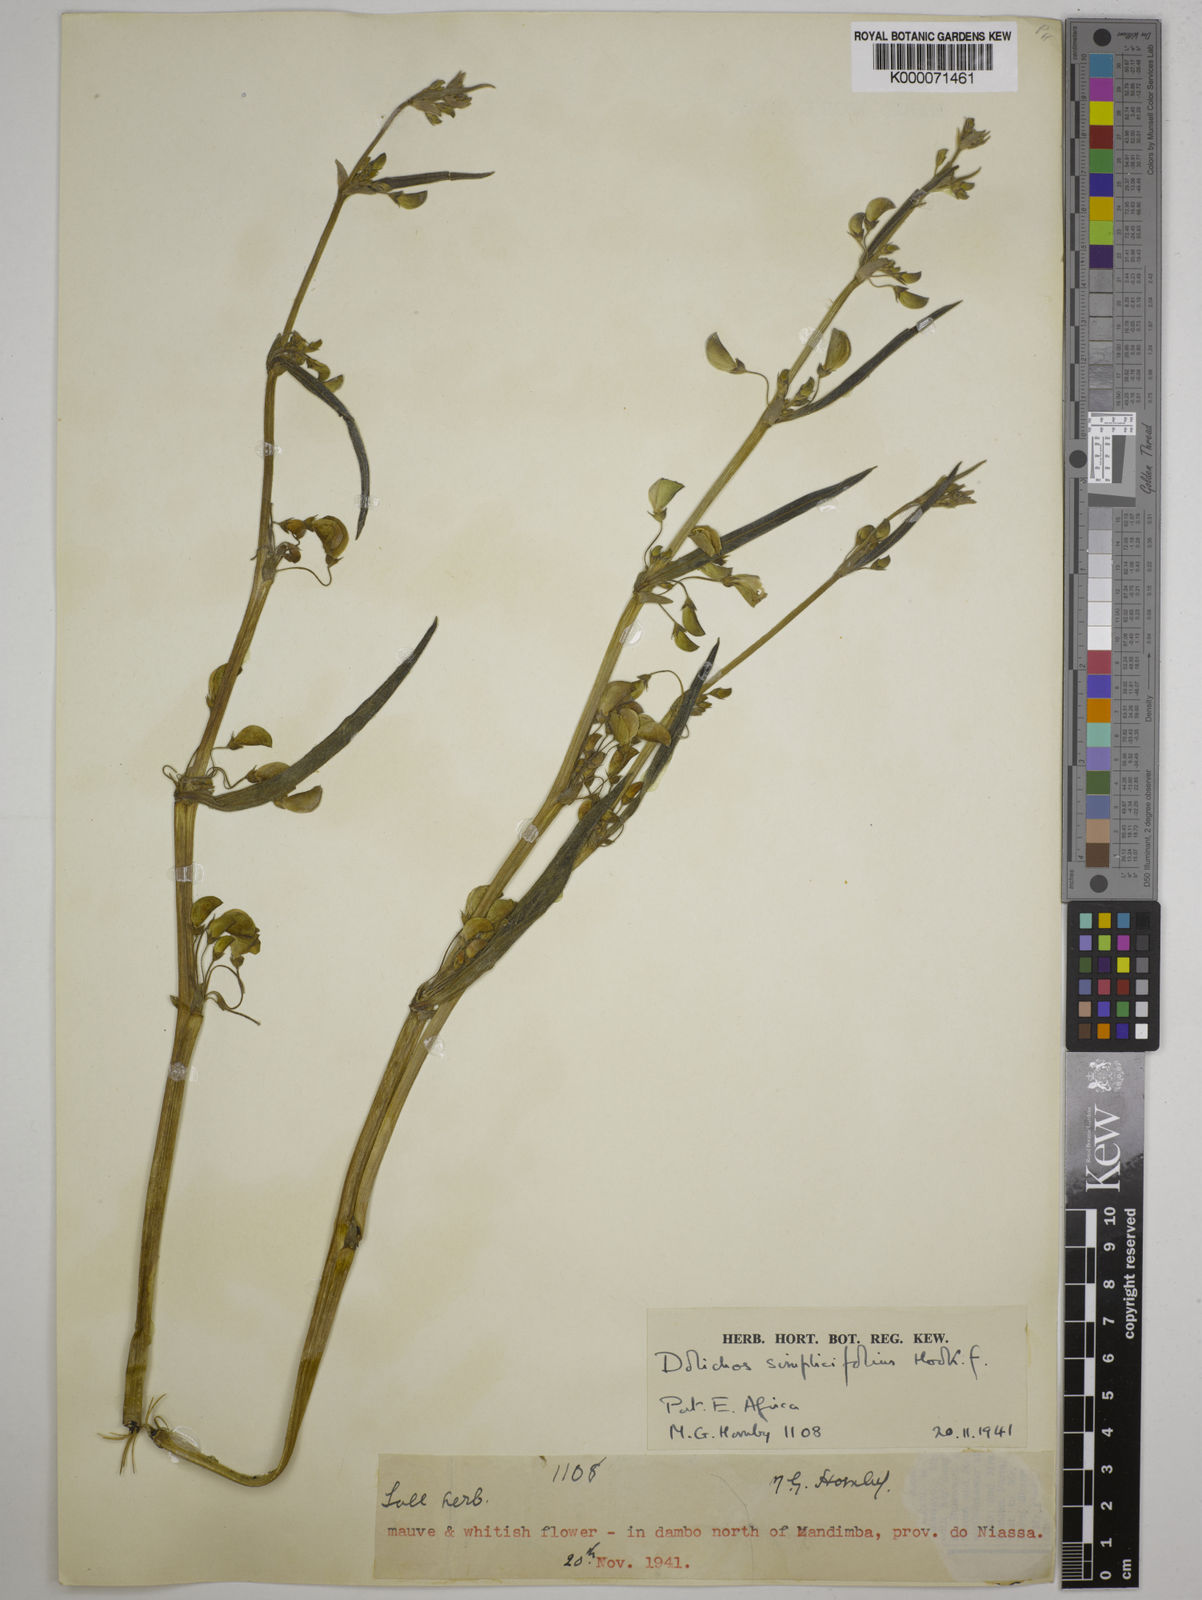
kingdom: Plantae
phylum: Tracheophyta
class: Magnoliopsida
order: Fabales
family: Fabaceae
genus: Dolichos
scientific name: Dolichos simplicifolius
